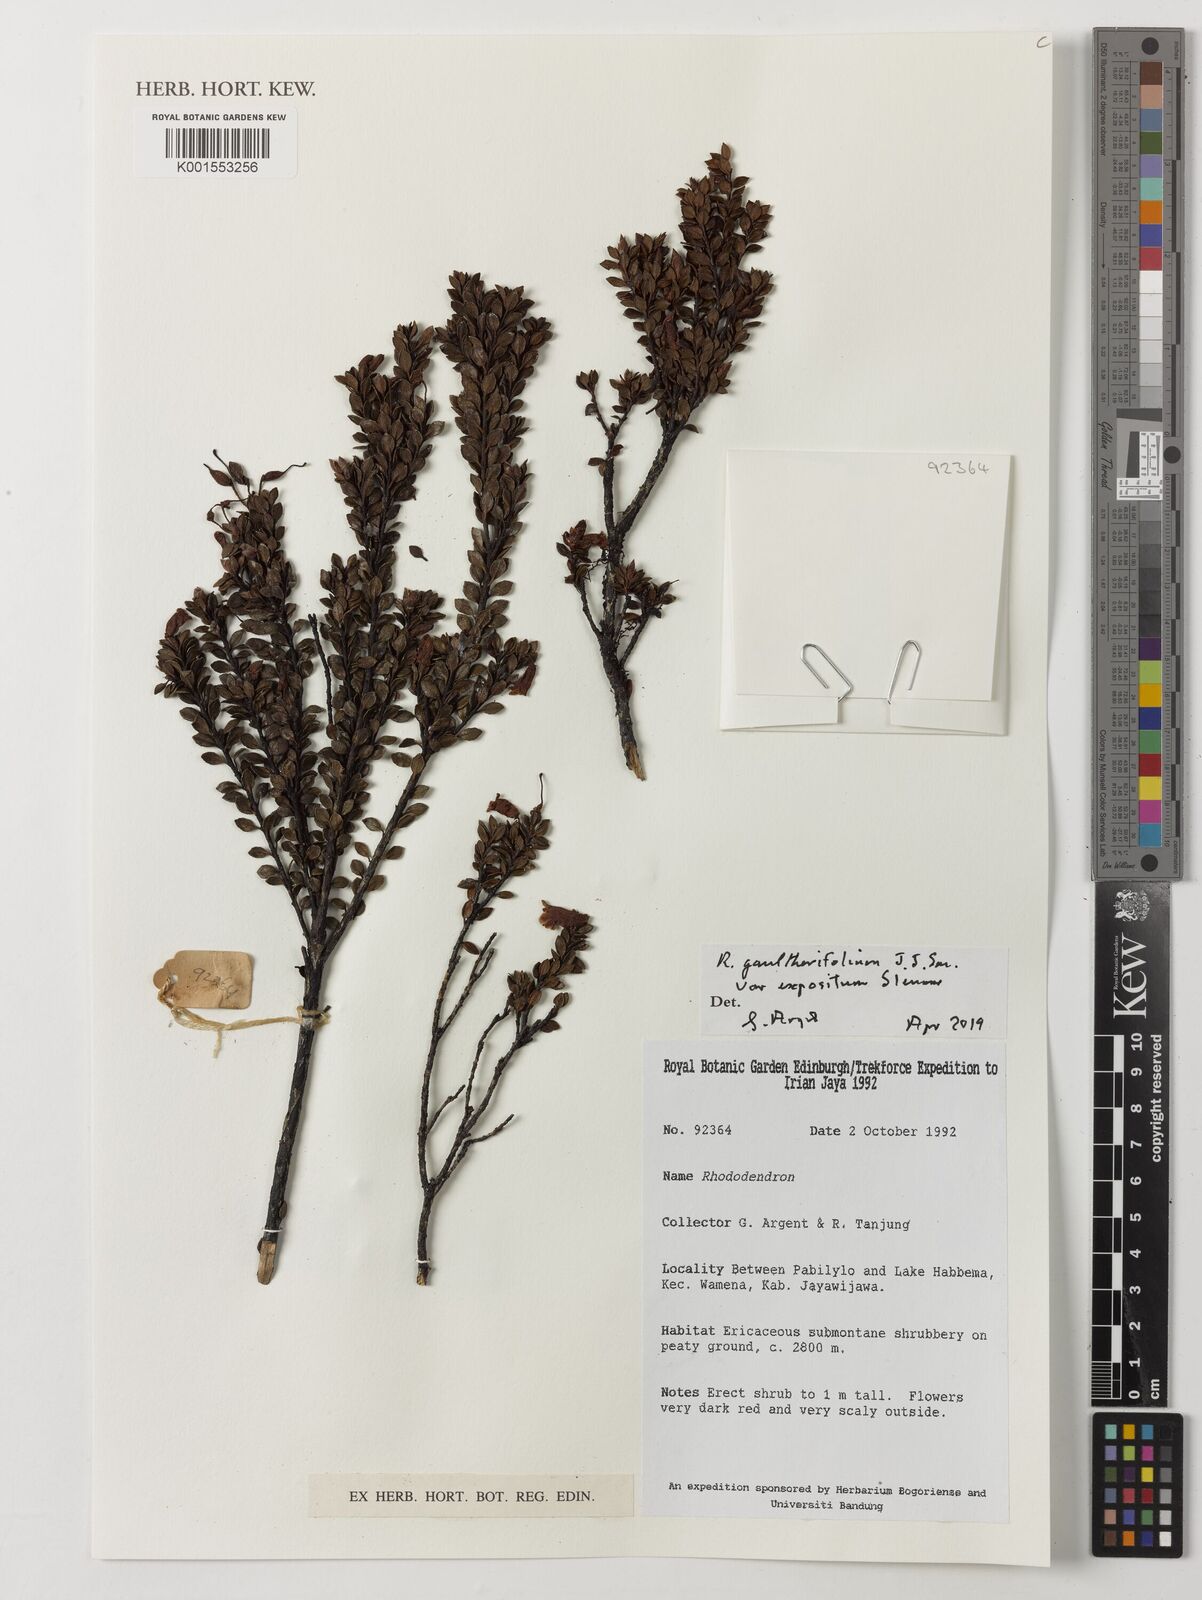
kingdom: Plantae
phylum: Tracheophyta
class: Magnoliopsida
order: Ericales
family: Ericaceae
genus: Rhododendron
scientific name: Rhododendron gaultheriifolium
